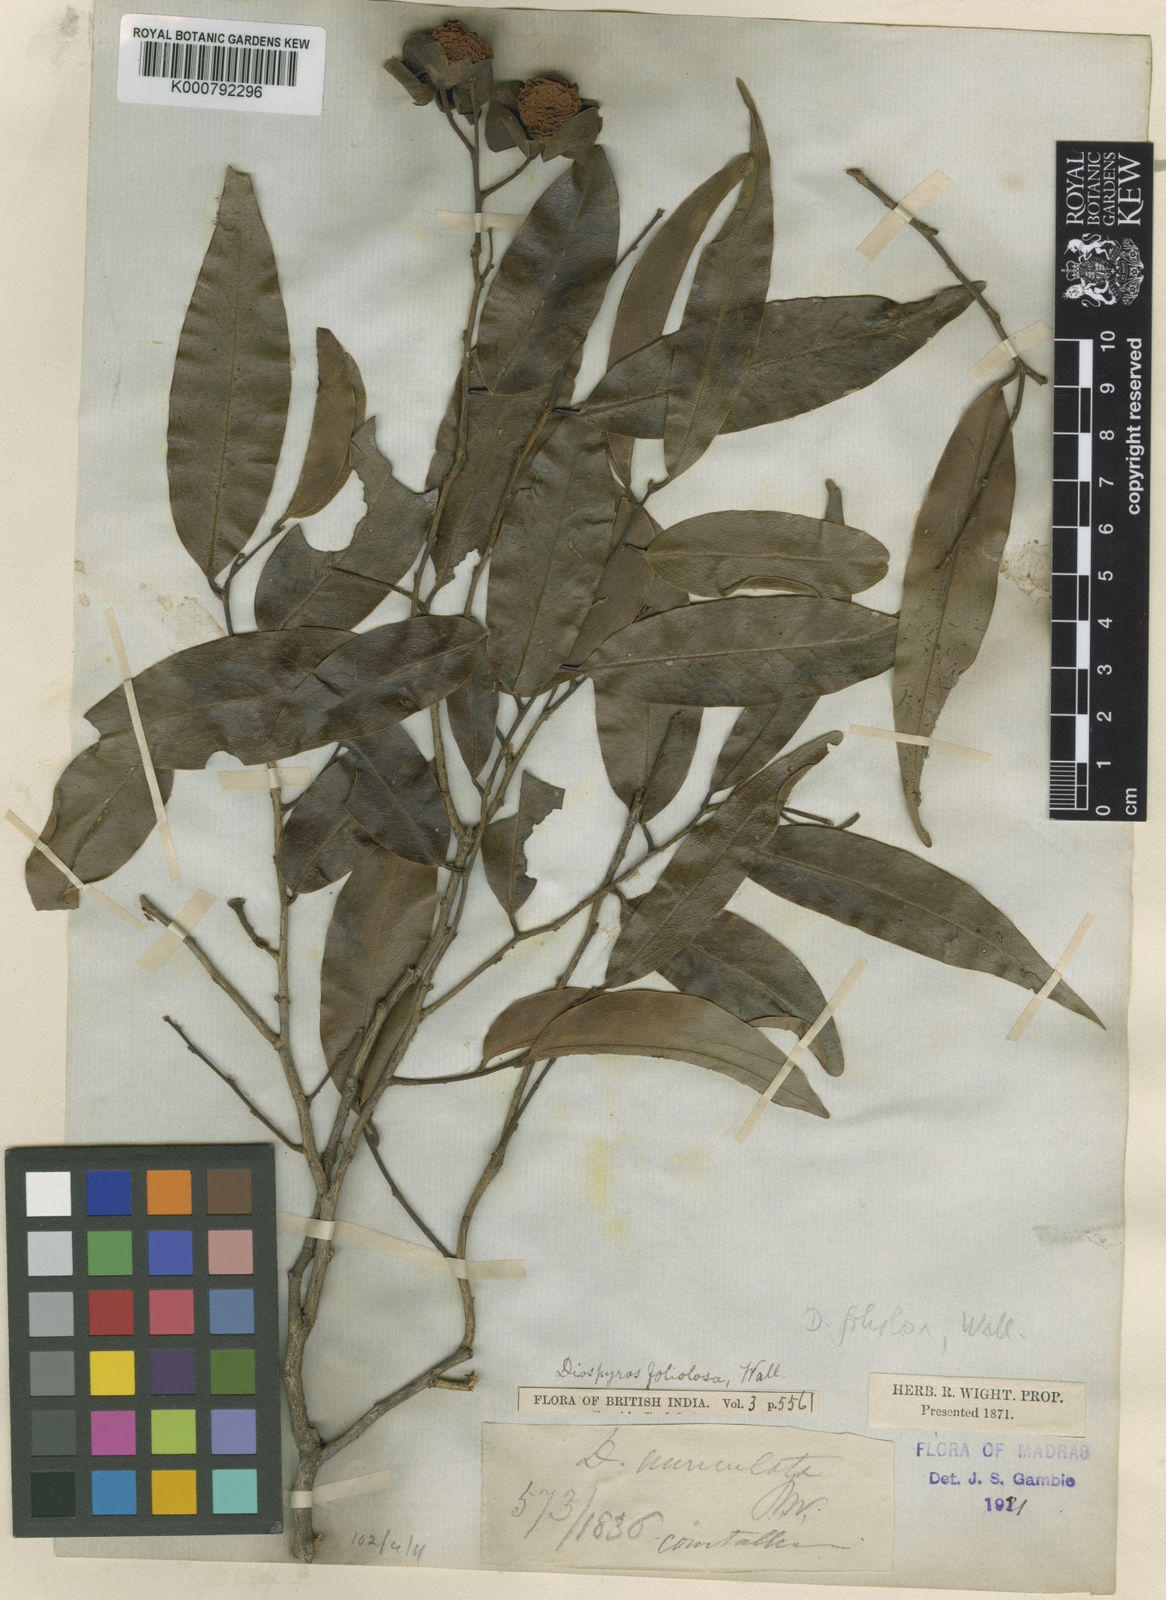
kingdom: Plantae
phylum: Tracheophyta
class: Magnoliopsida
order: Ericales
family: Ebenaceae
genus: Diospyros
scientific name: Diospyros toposia
